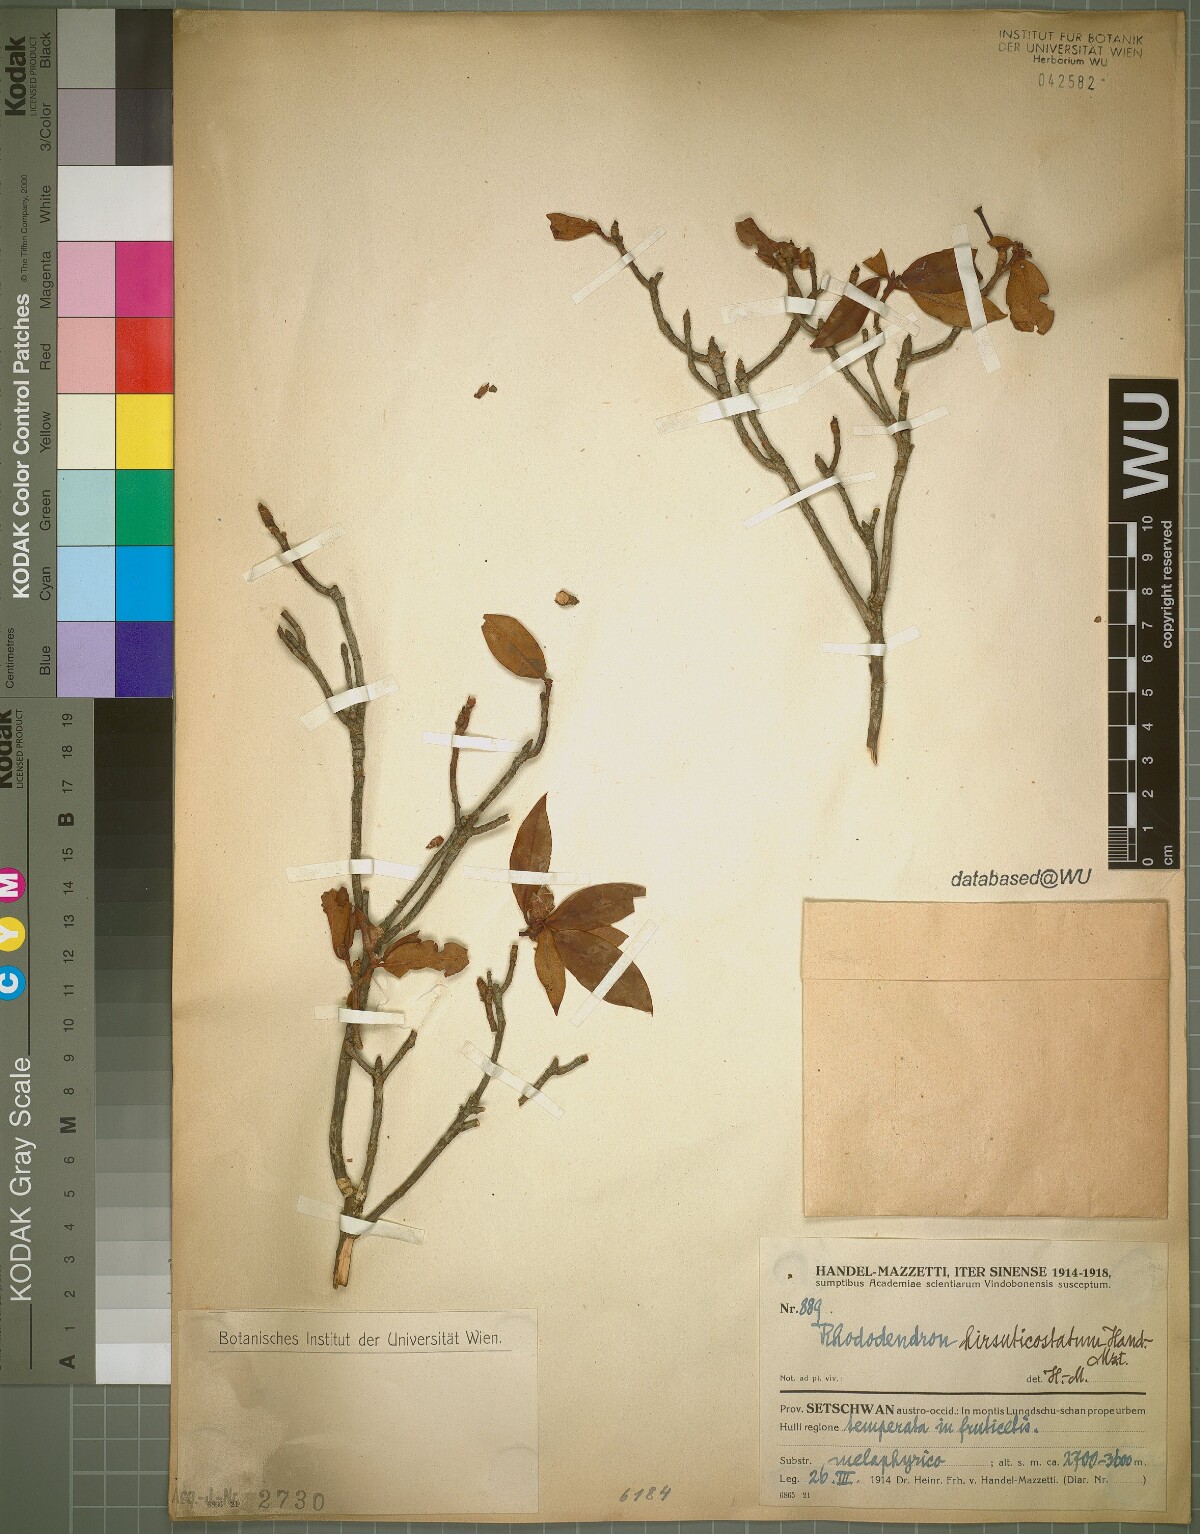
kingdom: Plantae
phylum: Tracheophyta
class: Magnoliopsida
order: Ericales
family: Ericaceae
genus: Rhododendron
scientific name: Rhododendron augustinii
